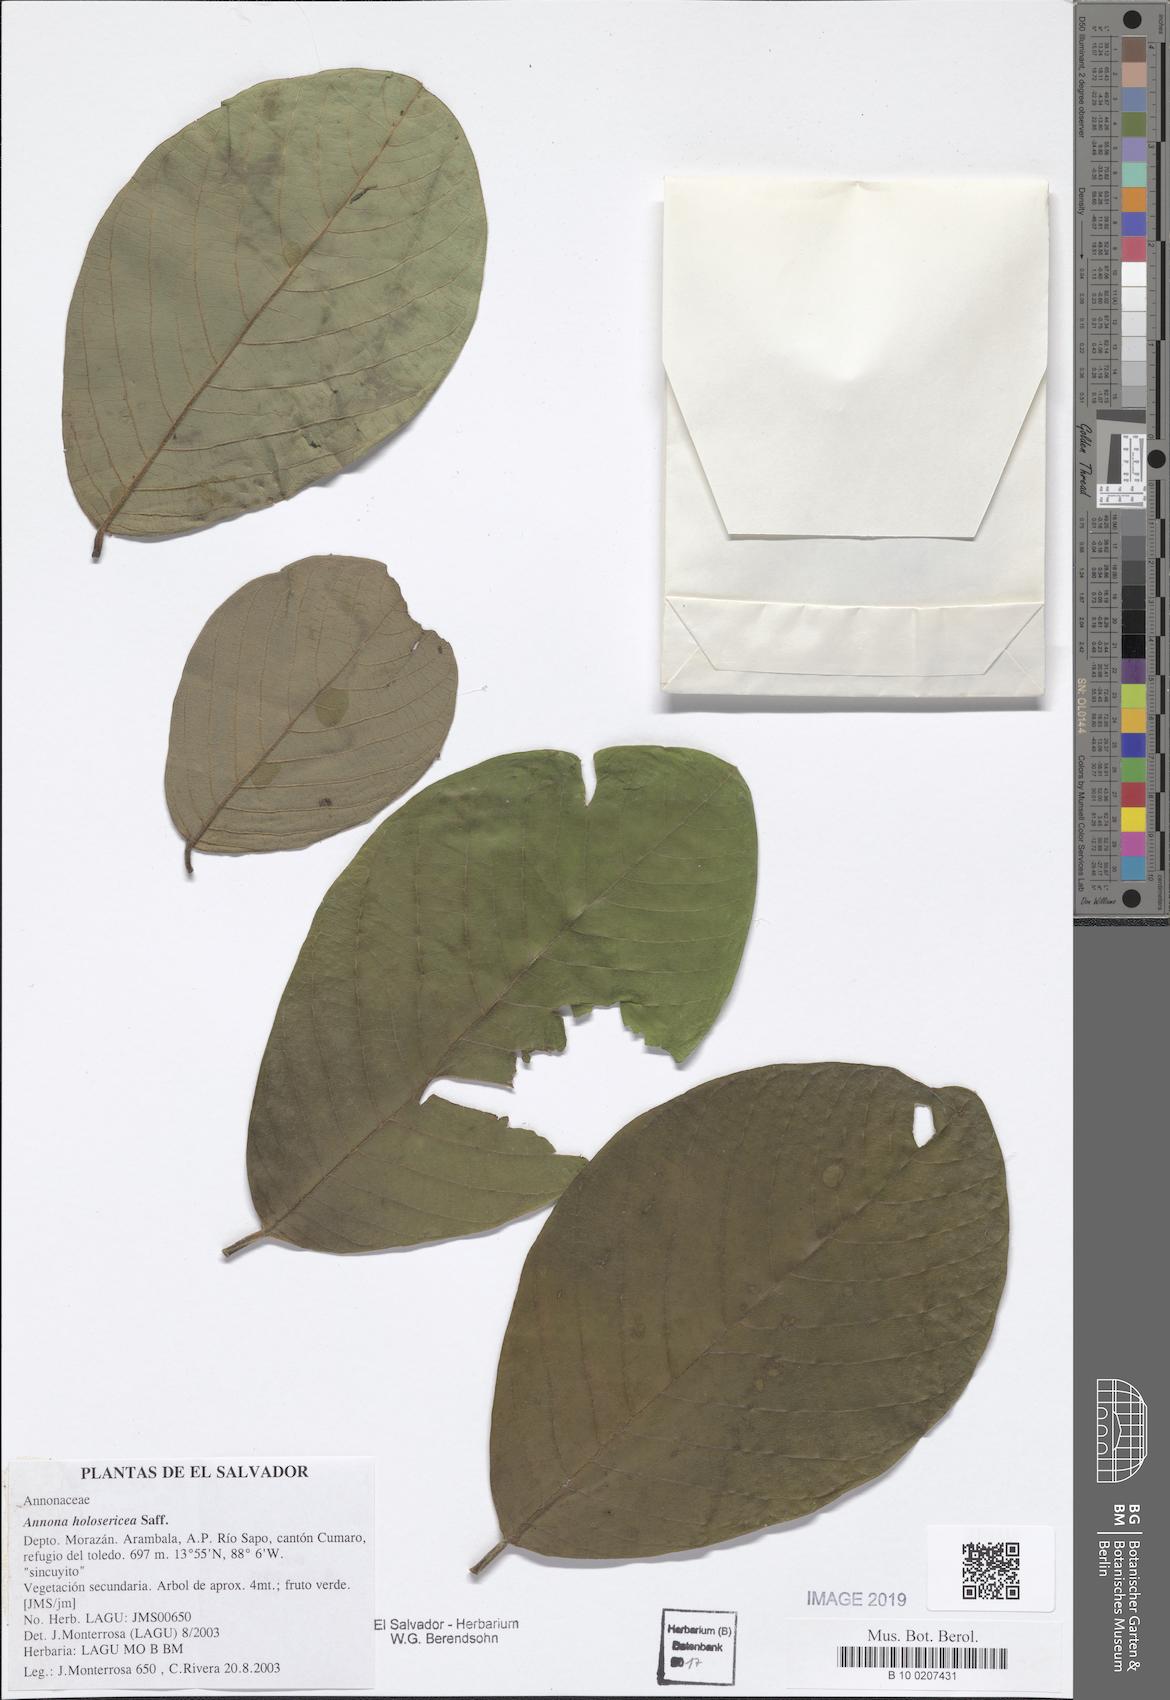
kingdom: Plantae
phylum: Tracheophyta
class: Magnoliopsida
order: Magnoliales
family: Annonaceae
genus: Annona
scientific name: Annona holosericea
